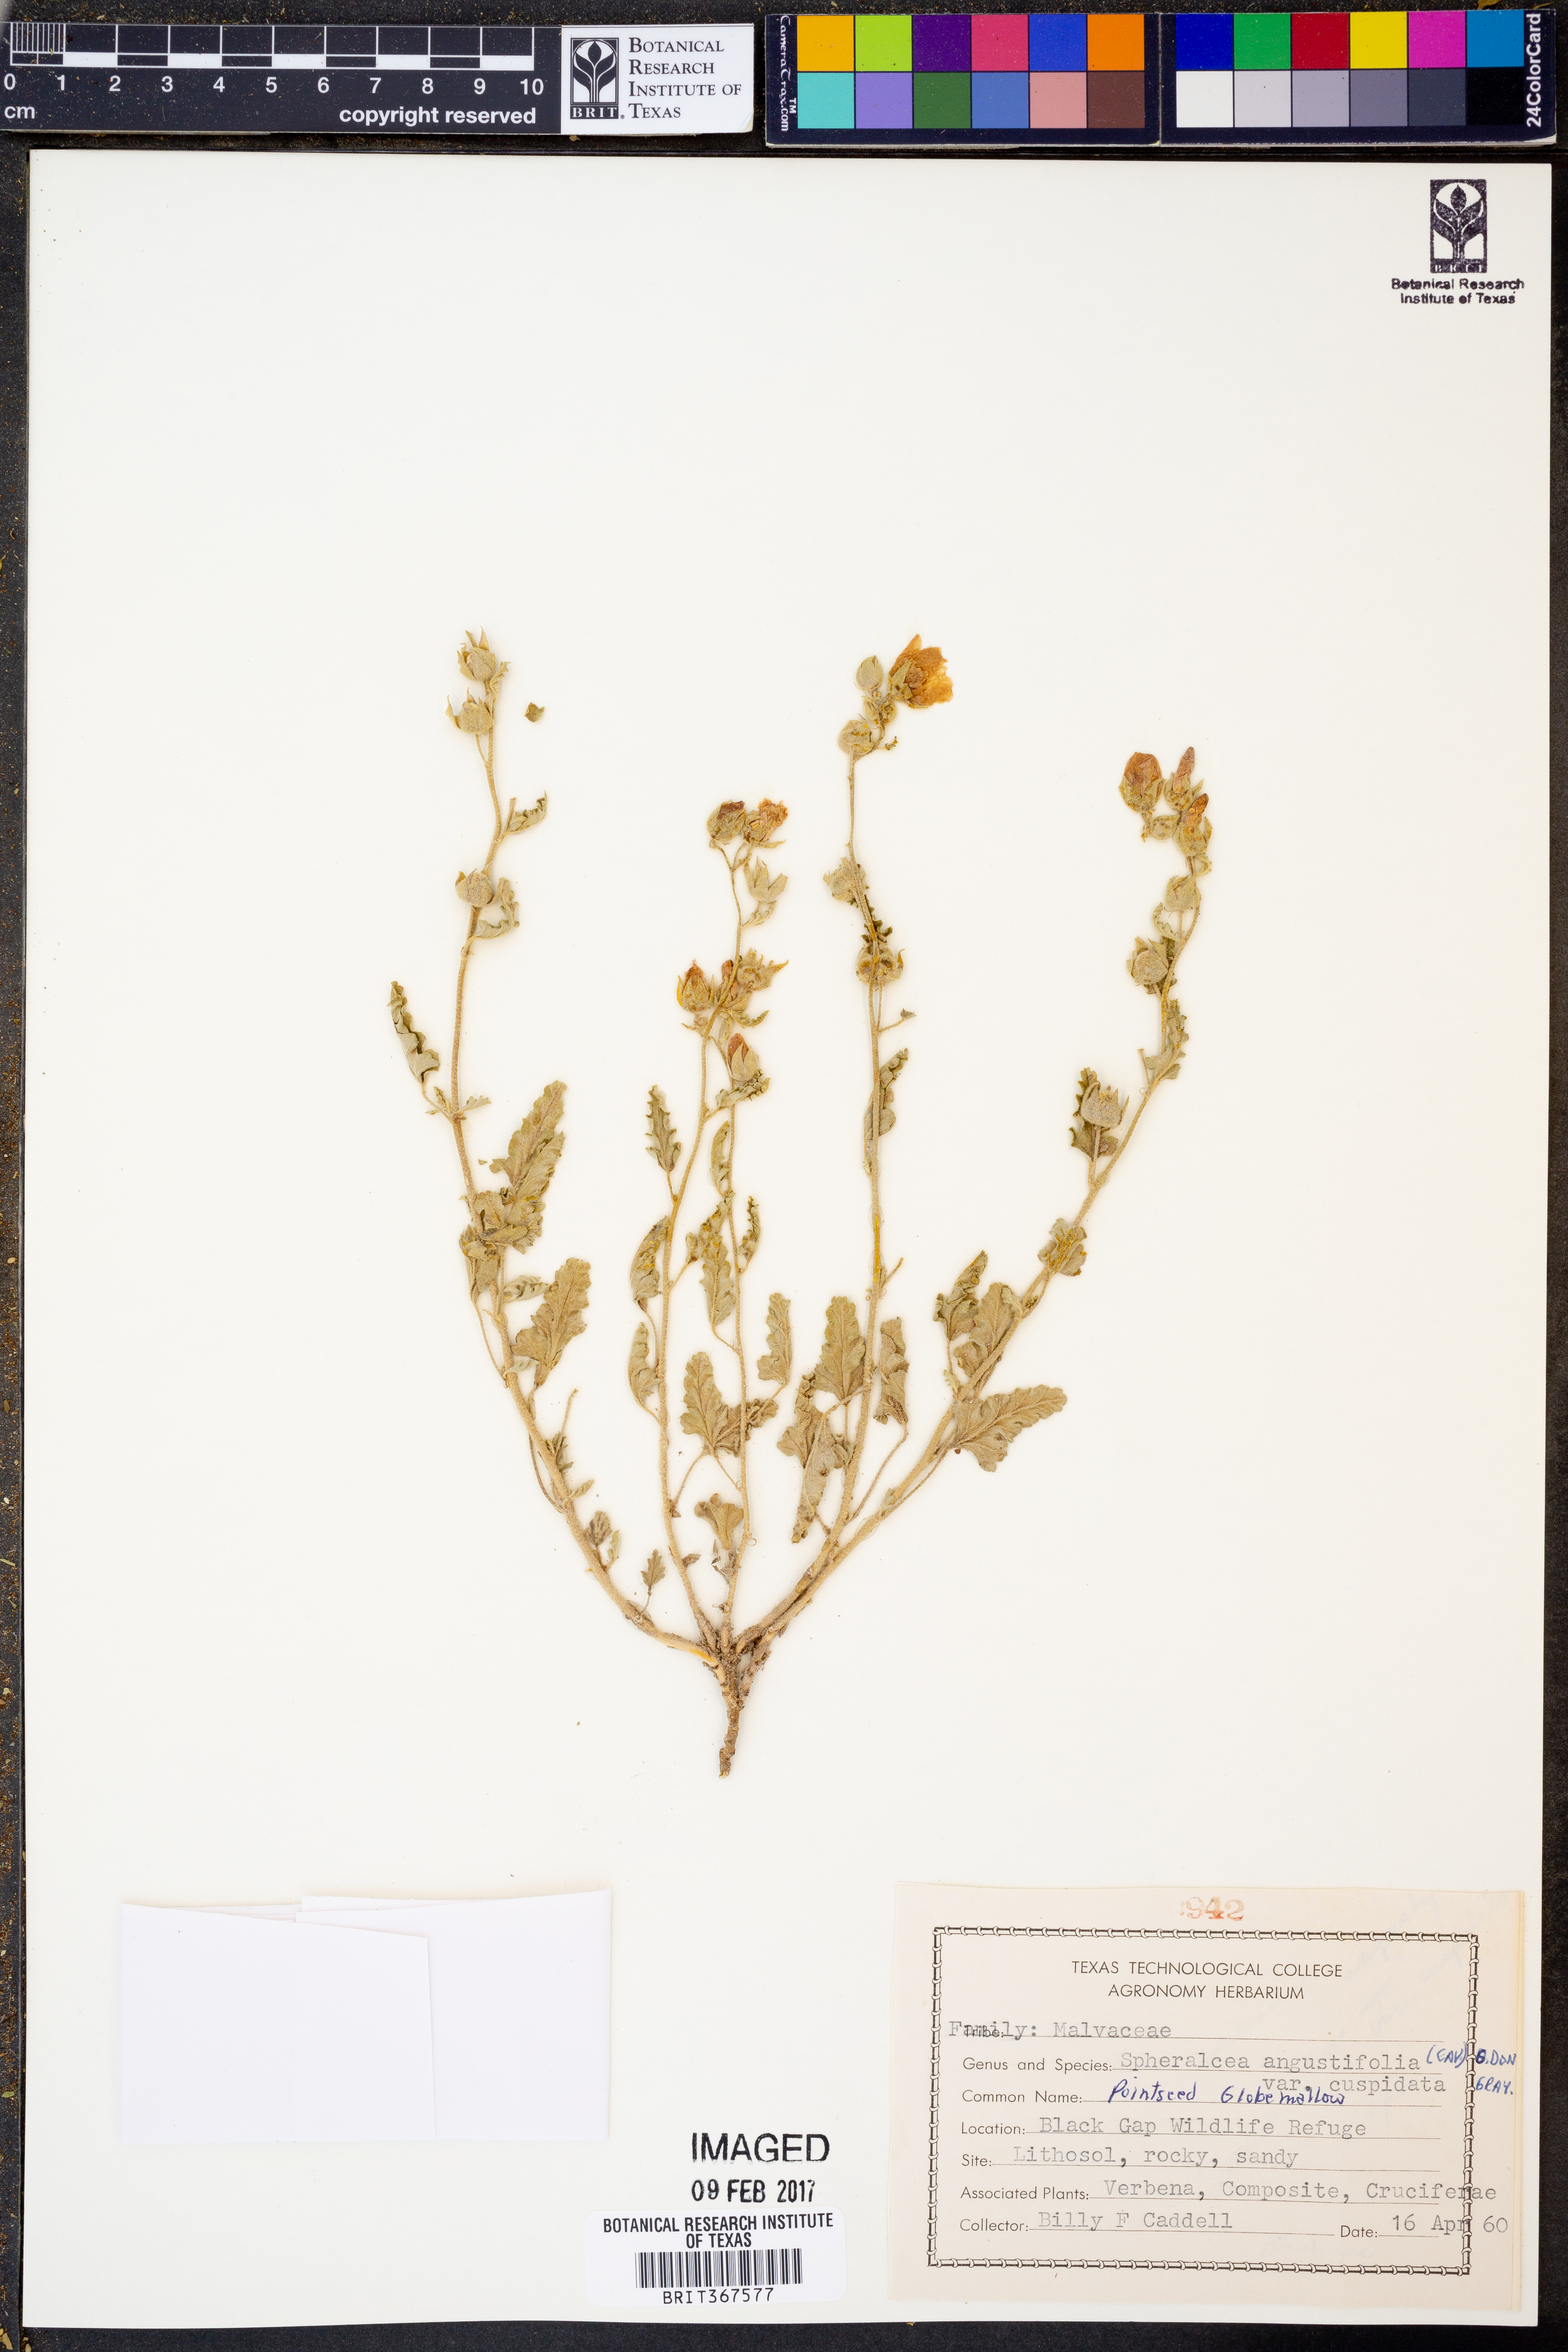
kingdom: Plantae
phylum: Tracheophyta
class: Magnoliopsida
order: Malvales
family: Malvaceae
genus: Sphaeralcea
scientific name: Sphaeralcea angustifolia
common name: Copper globe-mallow
